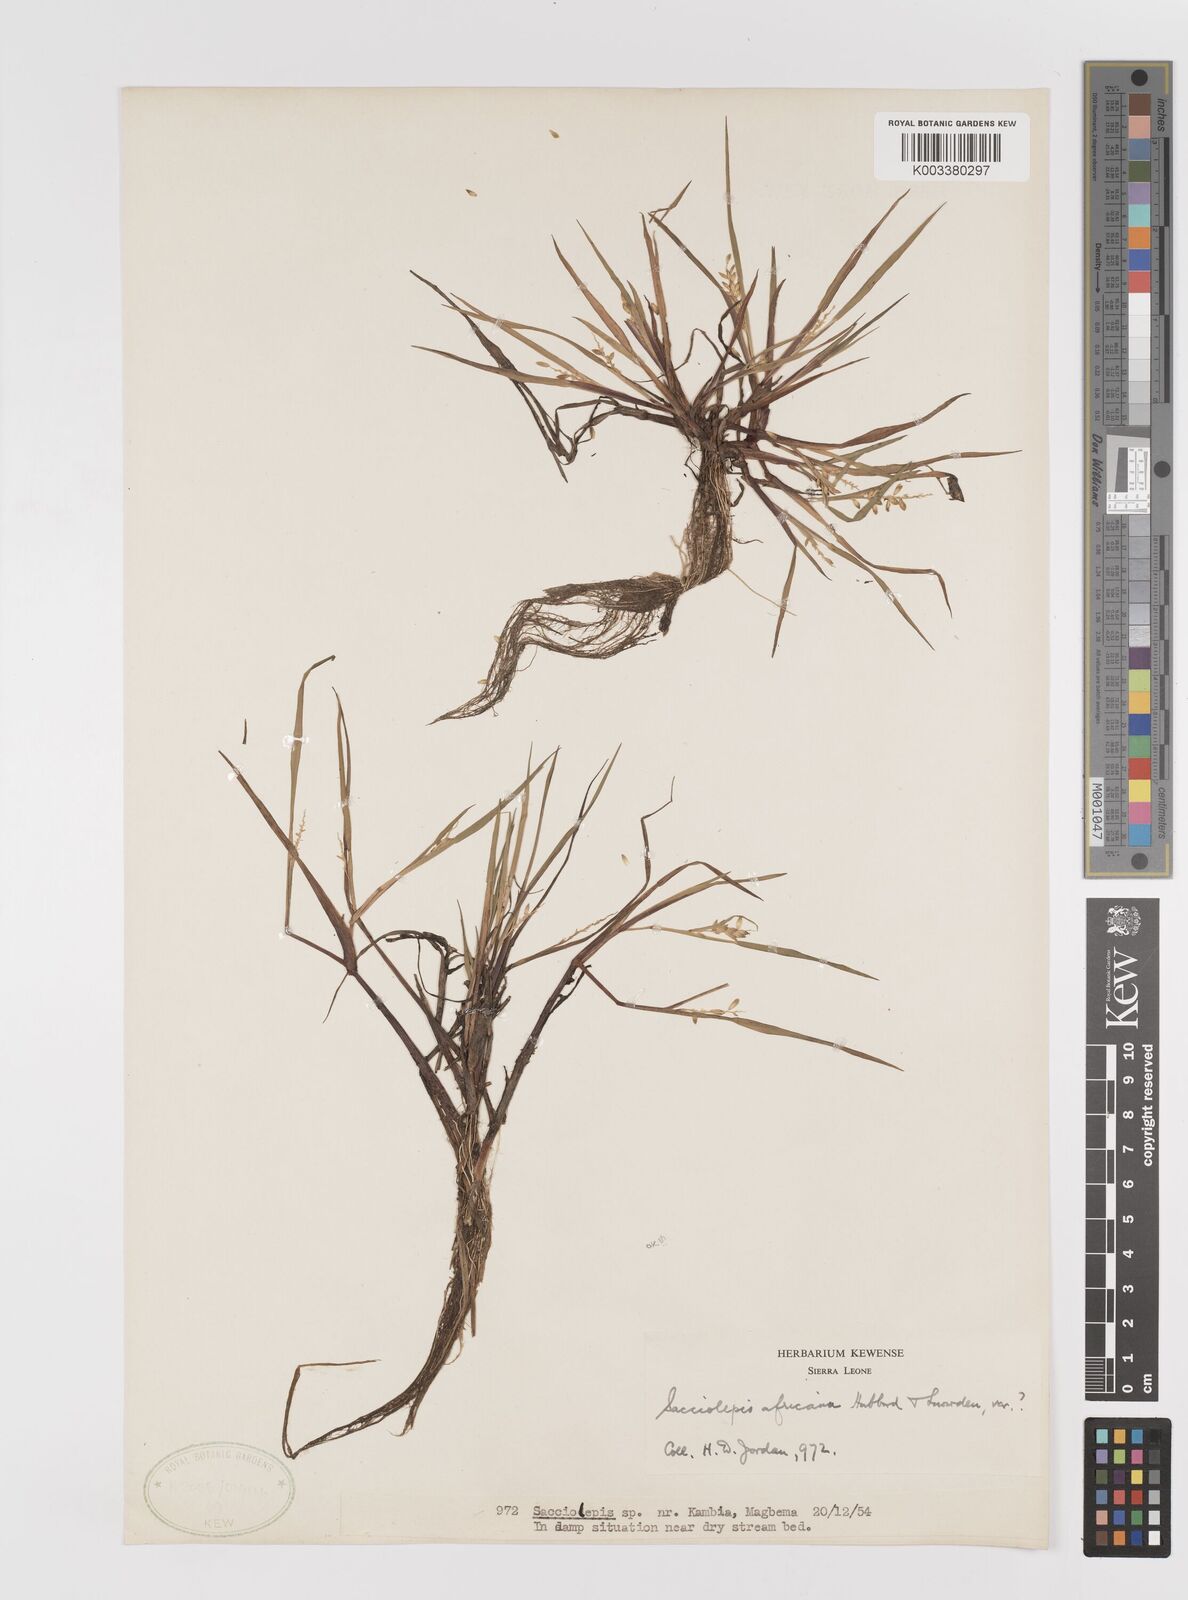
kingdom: Plantae
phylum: Tracheophyta
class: Liliopsida
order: Poales
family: Poaceae
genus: Sacciolepis
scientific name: Sacciolepis africana
